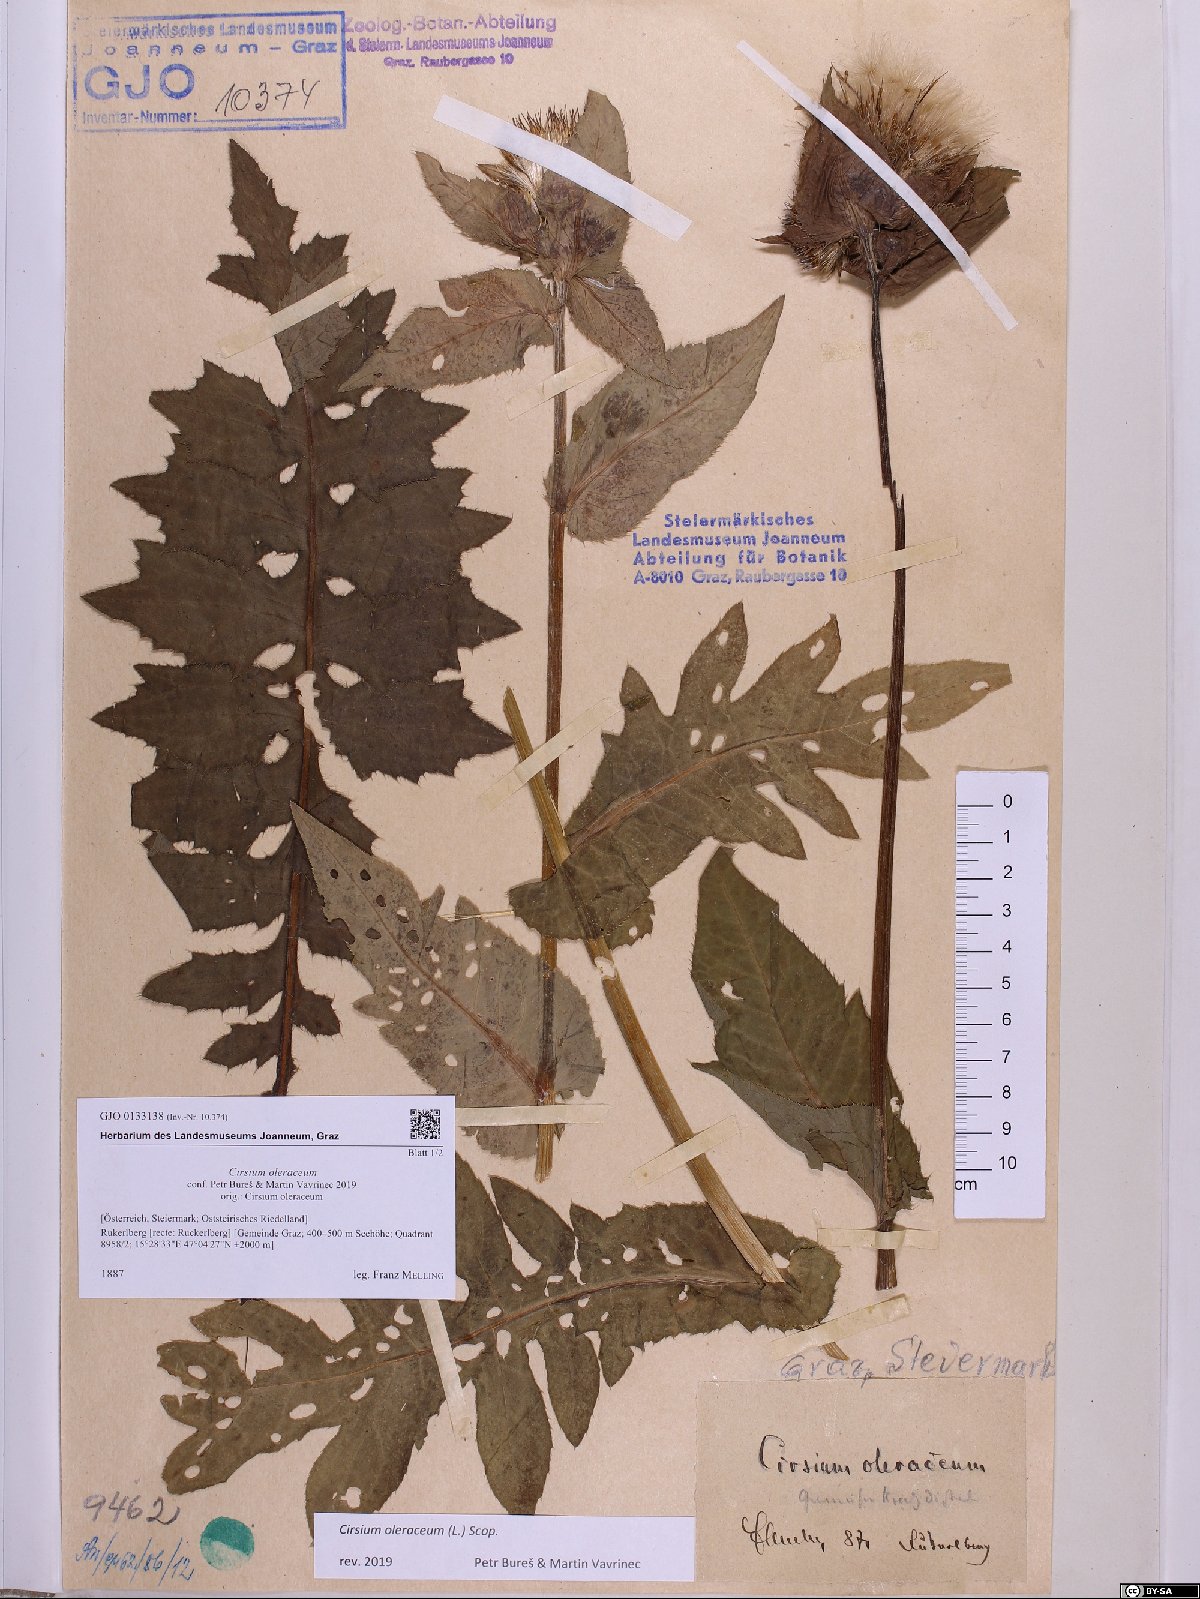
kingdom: Plantae
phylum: Tracheophyta
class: Magnoliopsida
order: Asterales
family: Asteraceae
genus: Cirsium
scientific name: Cirsium oleraceum
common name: Cabbage thistle
